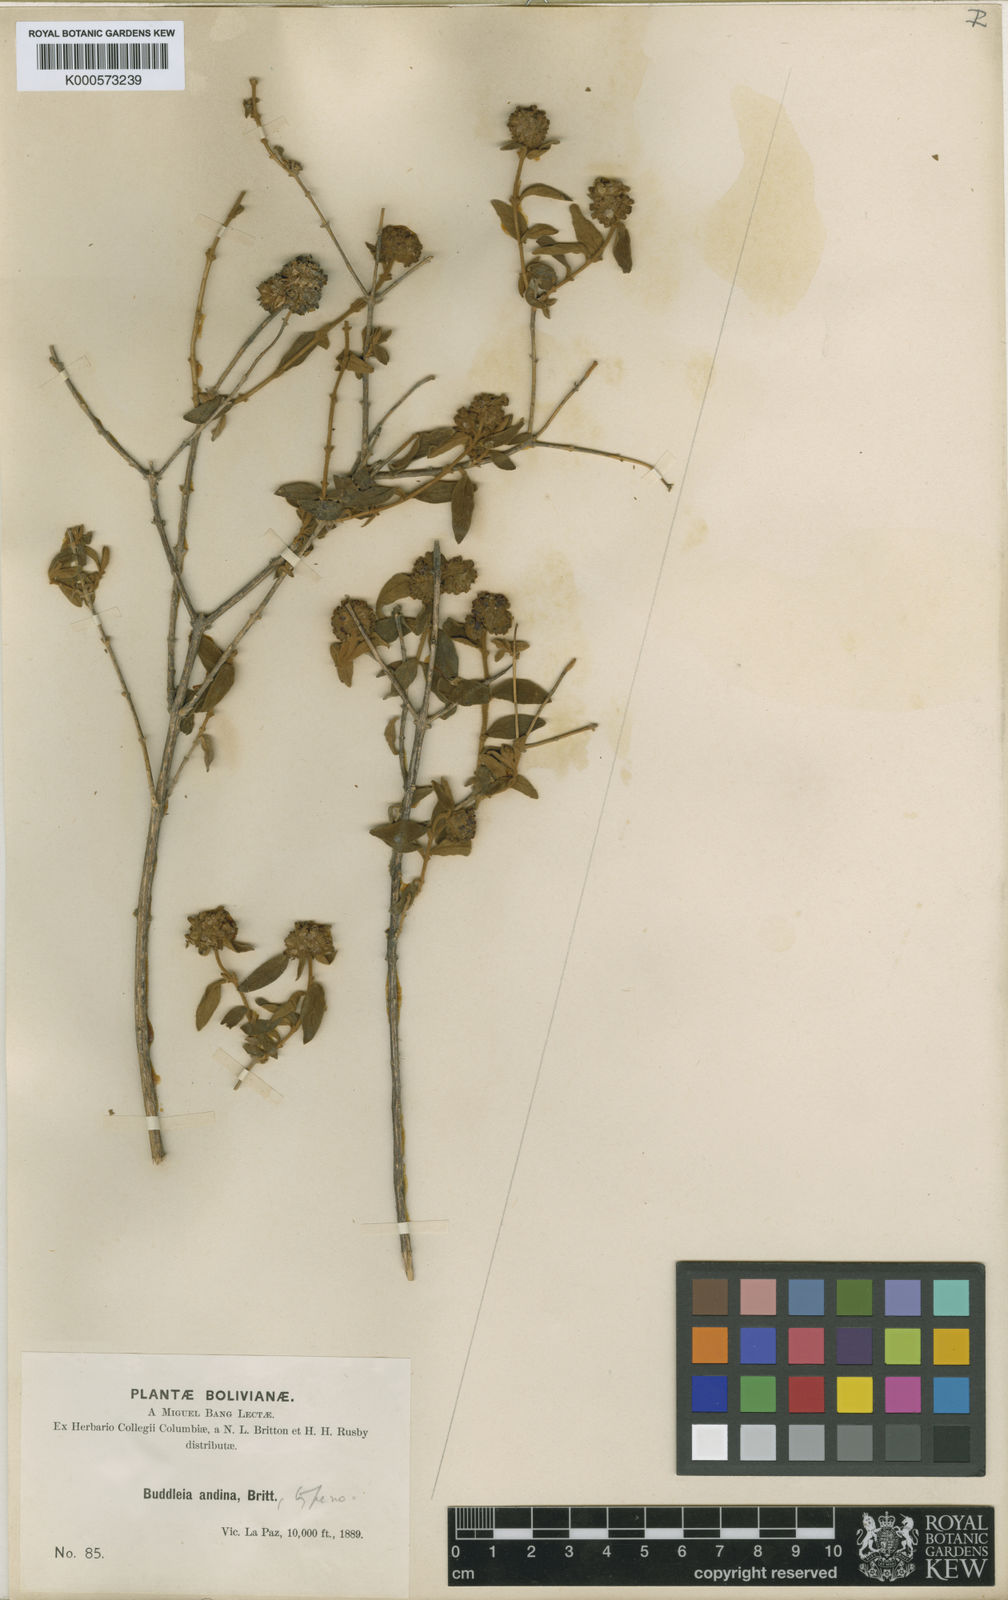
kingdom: Plantae
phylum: Tracheophyta
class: Magnoliopsida
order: Lamiales
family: Scrophulariaceae
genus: Buddleja
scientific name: Buddleja
